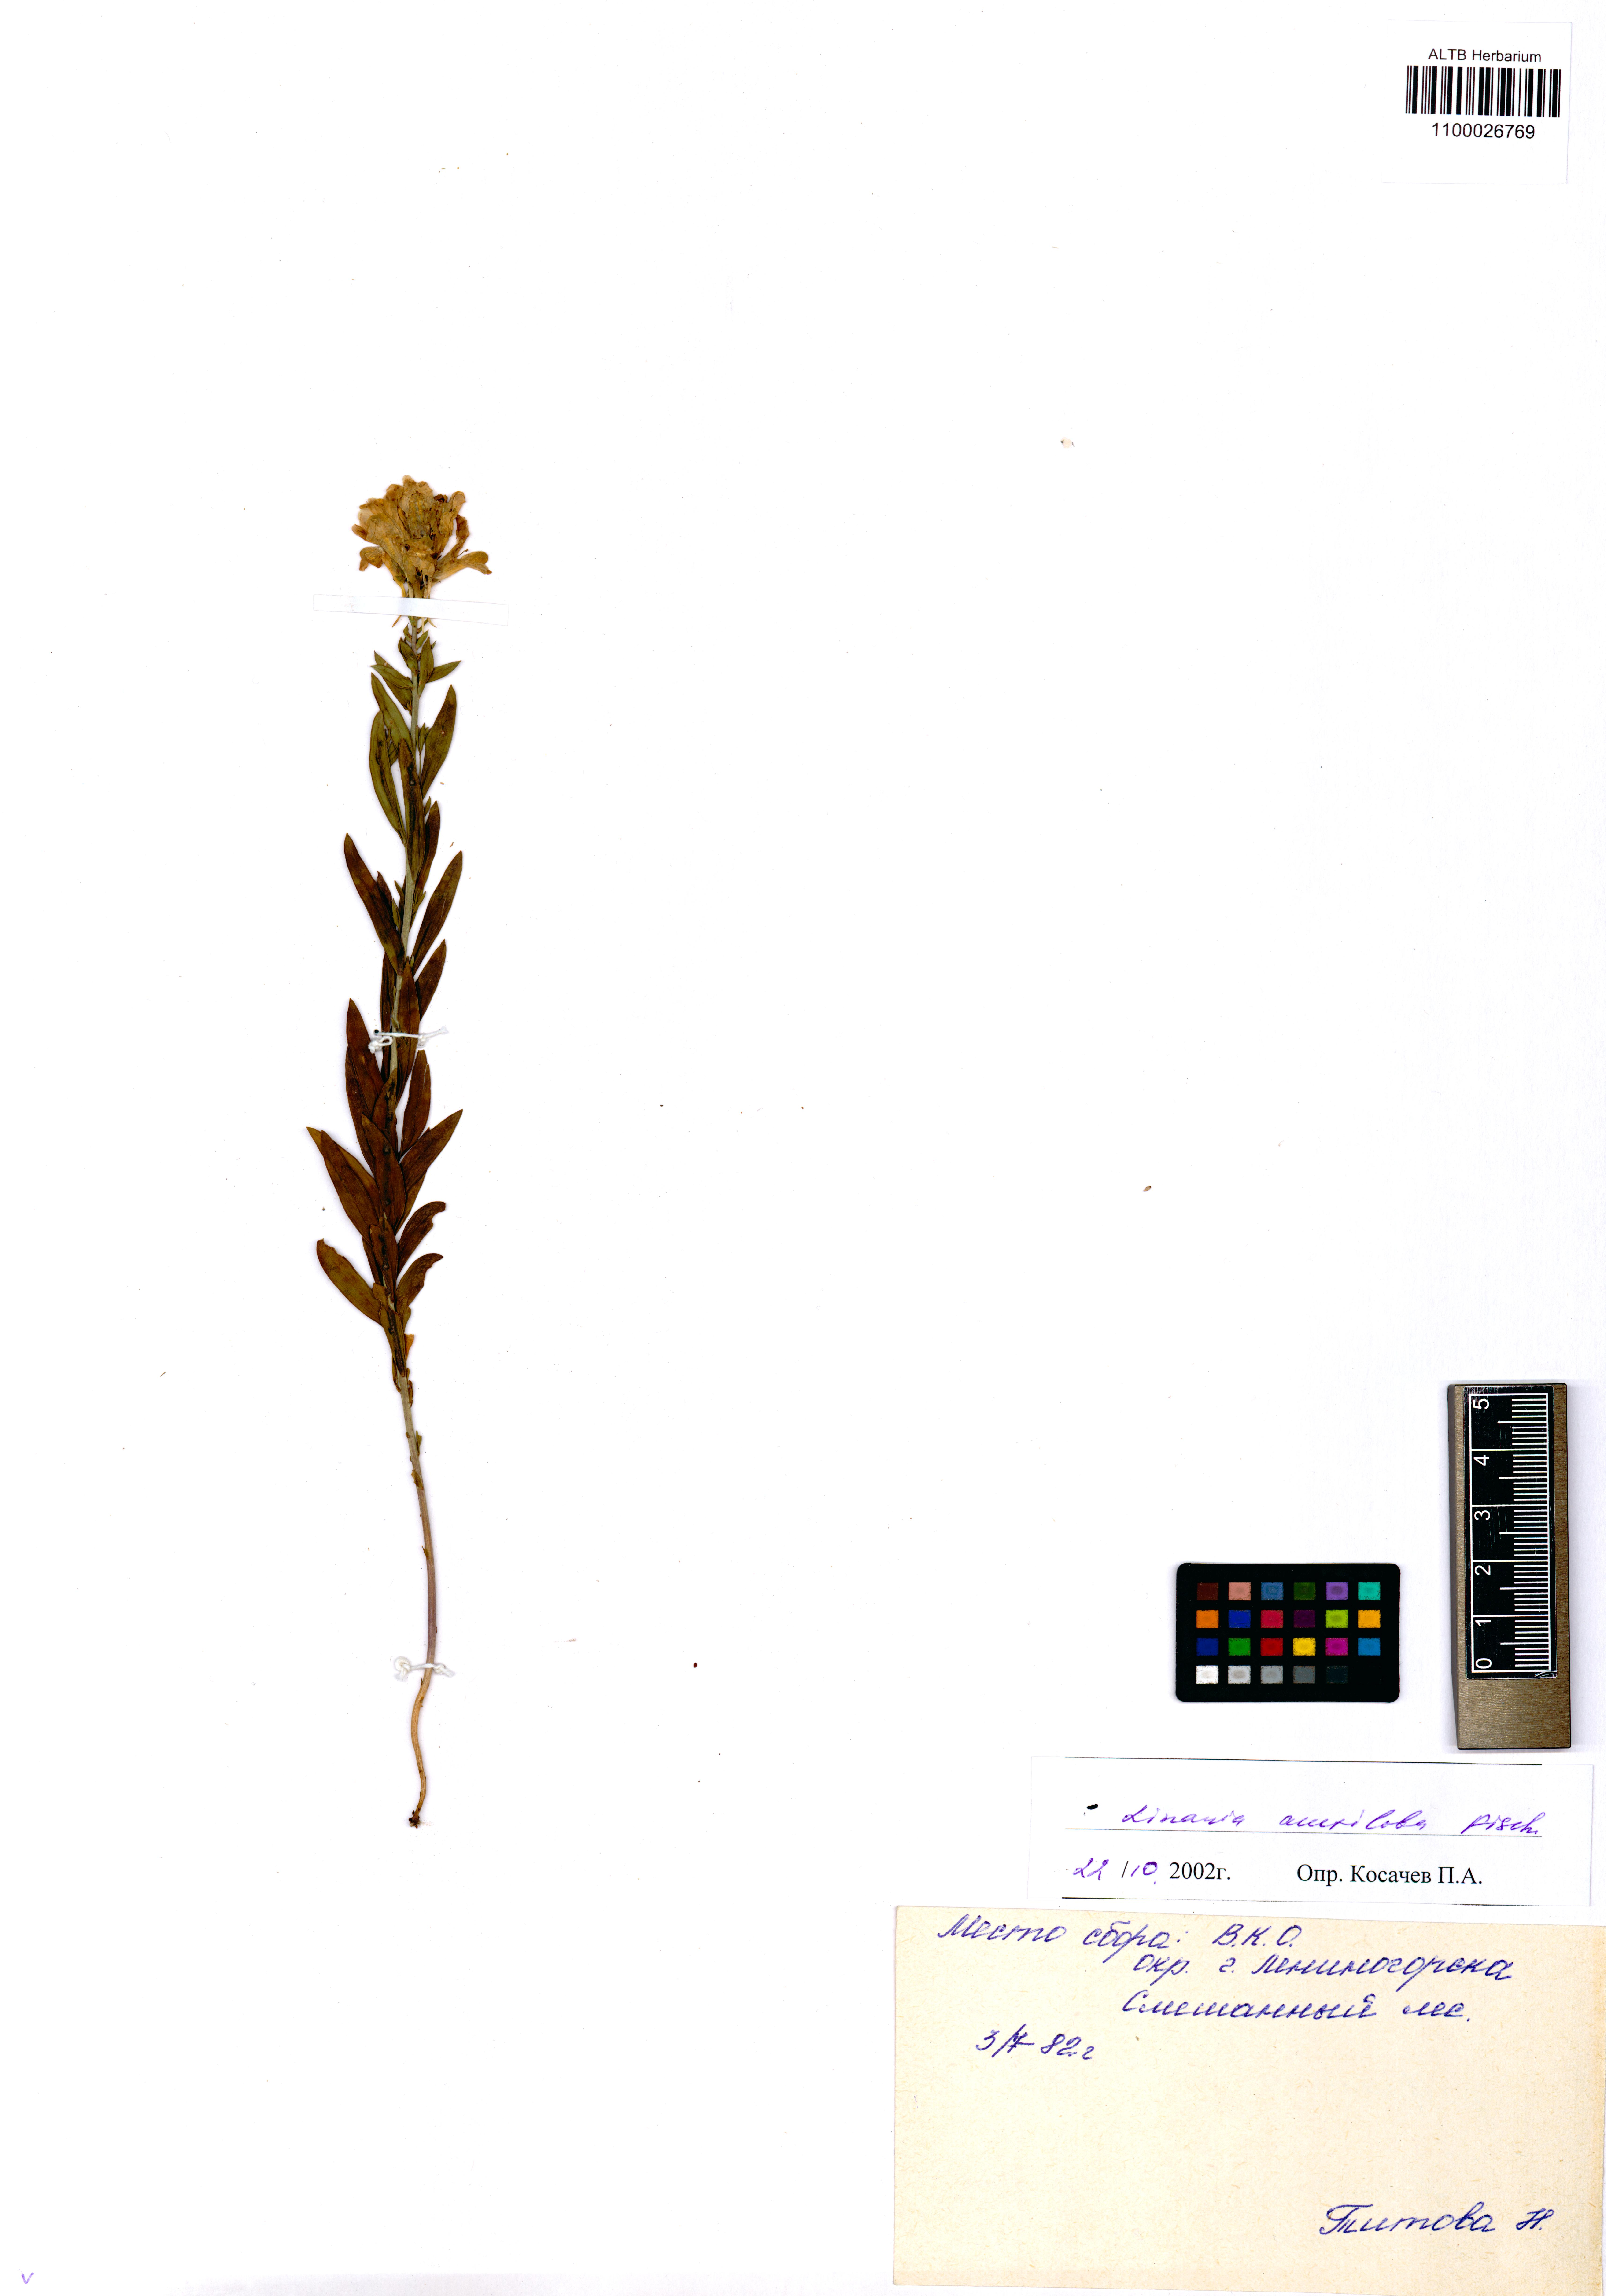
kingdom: Plantae
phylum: Tracheophyta
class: Magnoliopsida
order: Lamiales
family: Plantaginaceae
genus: Linaria
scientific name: Linaria acutiloba
